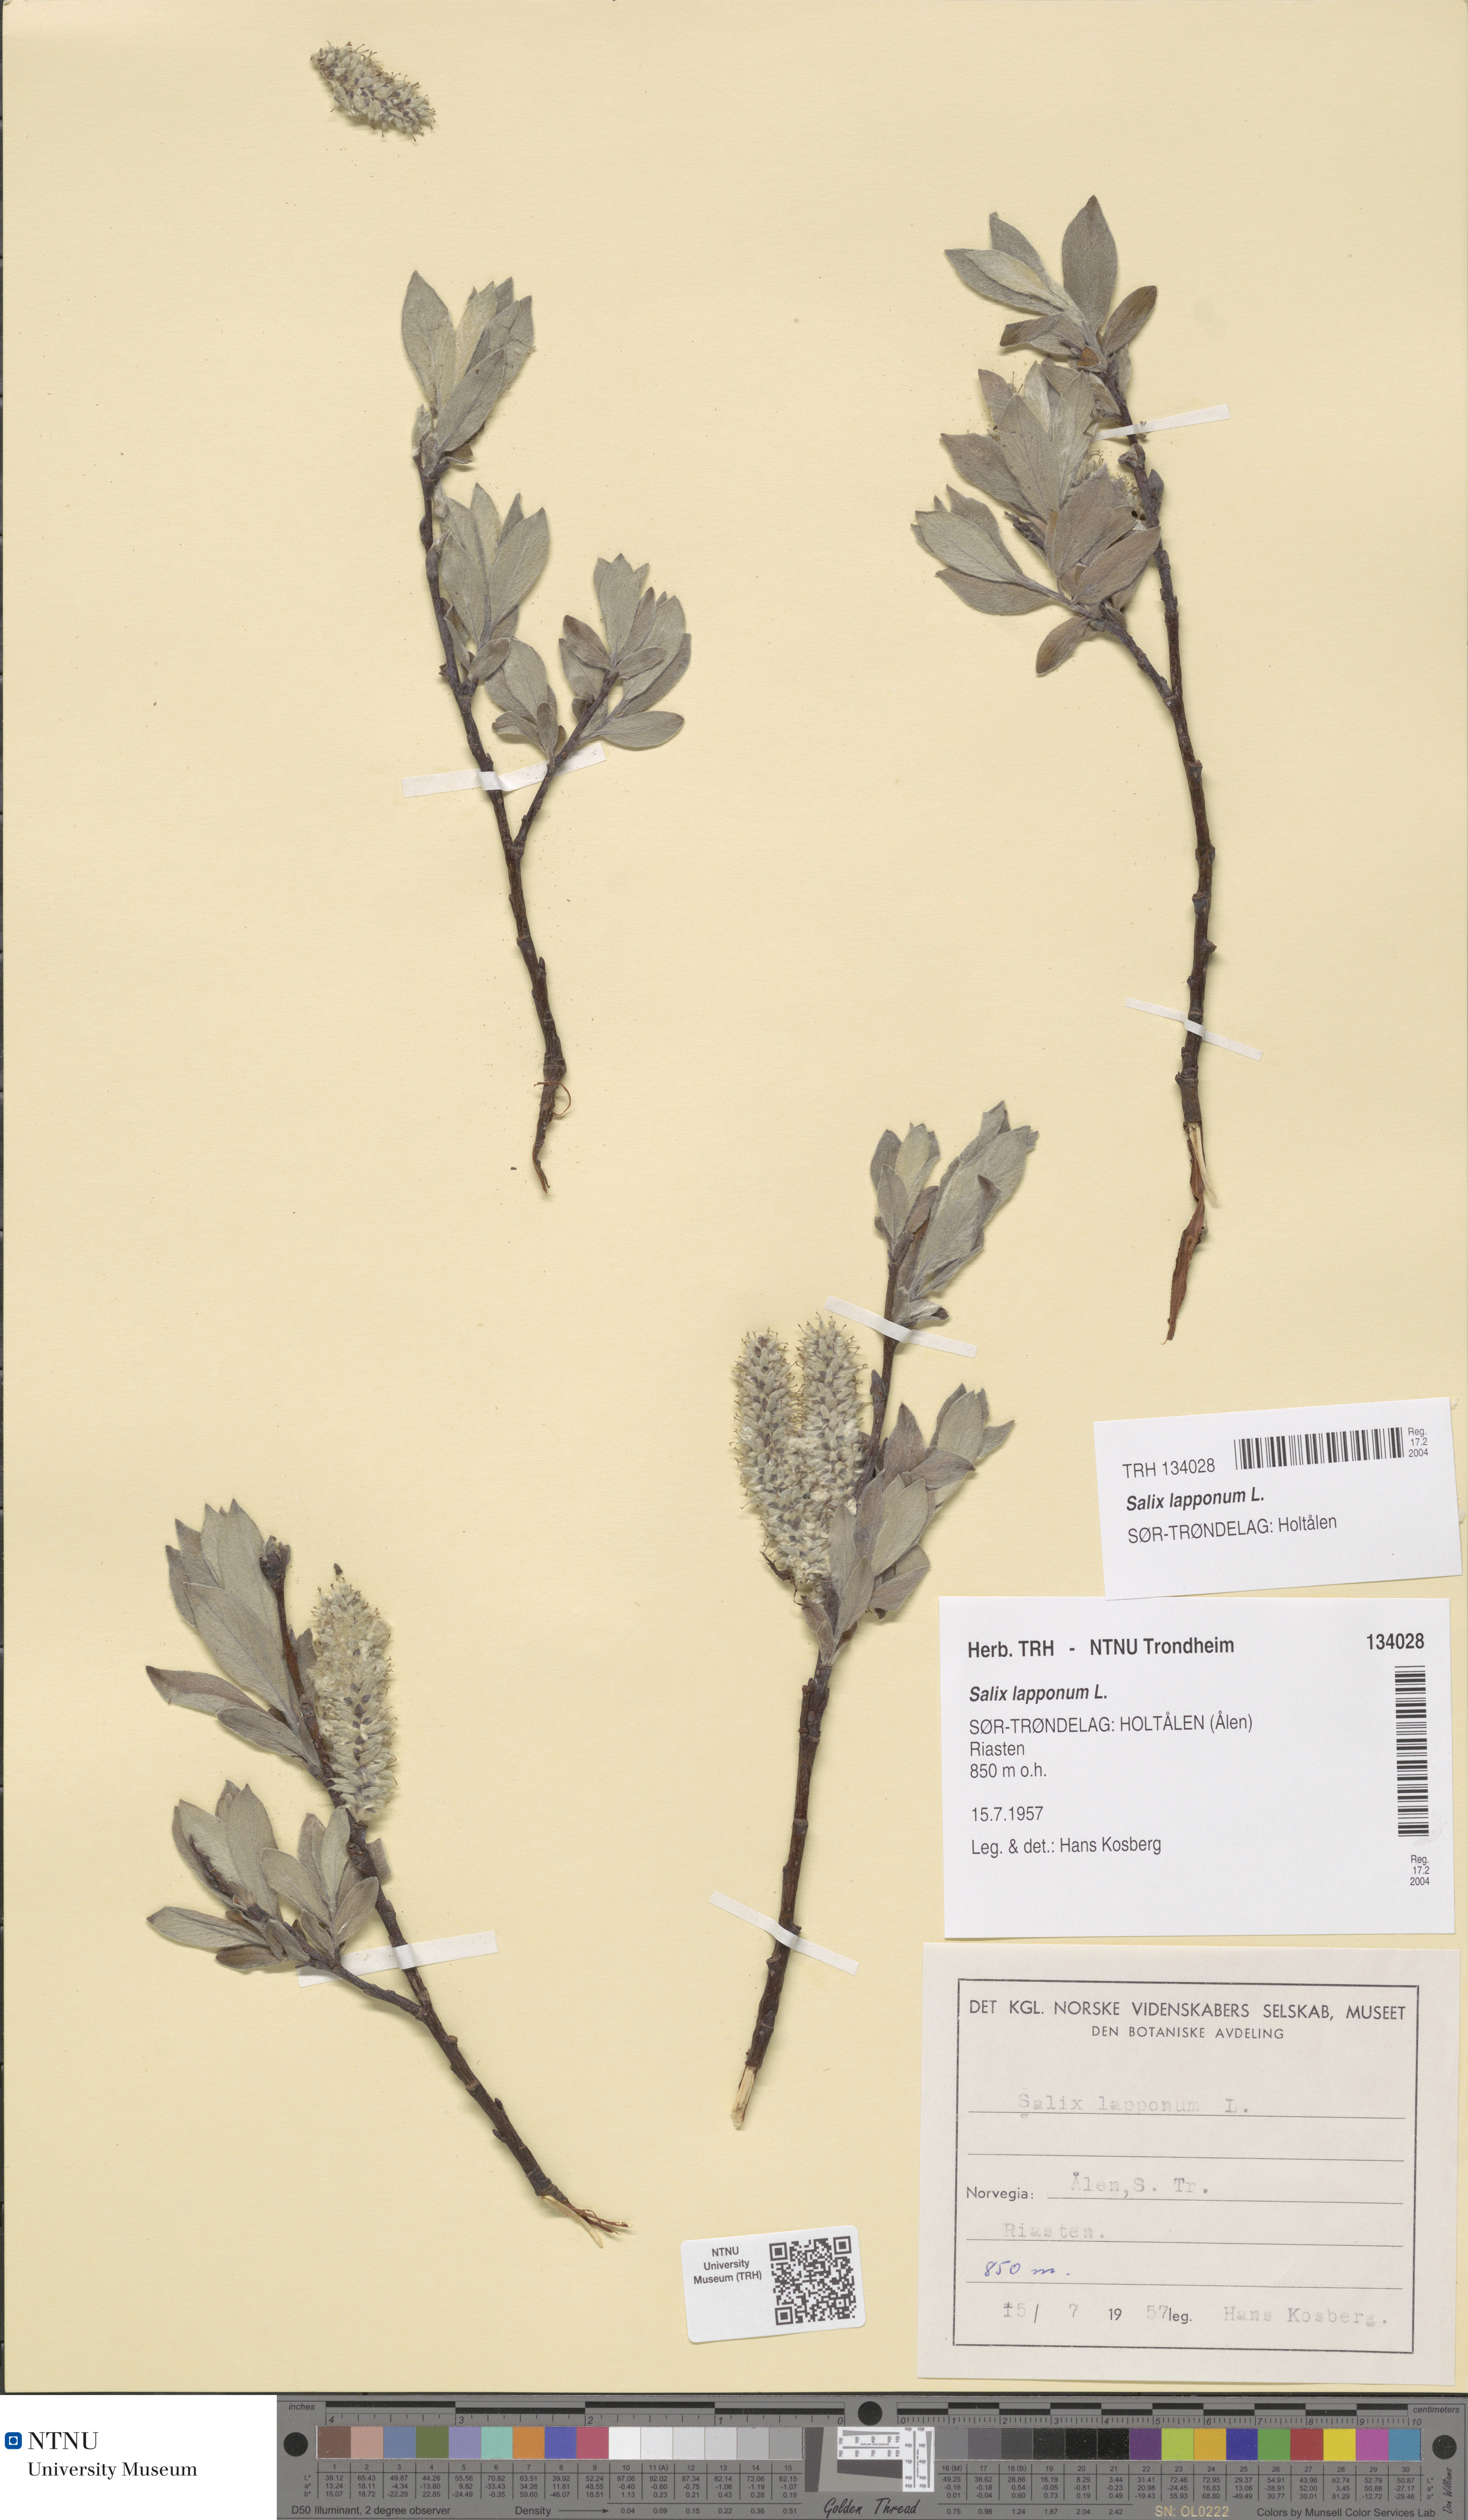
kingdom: Plantae
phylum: Tracheophyta
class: Magnoliopsida
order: Malpighiales
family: Salicaceae
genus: Salix
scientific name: Salix lapponum
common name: Downy willow
